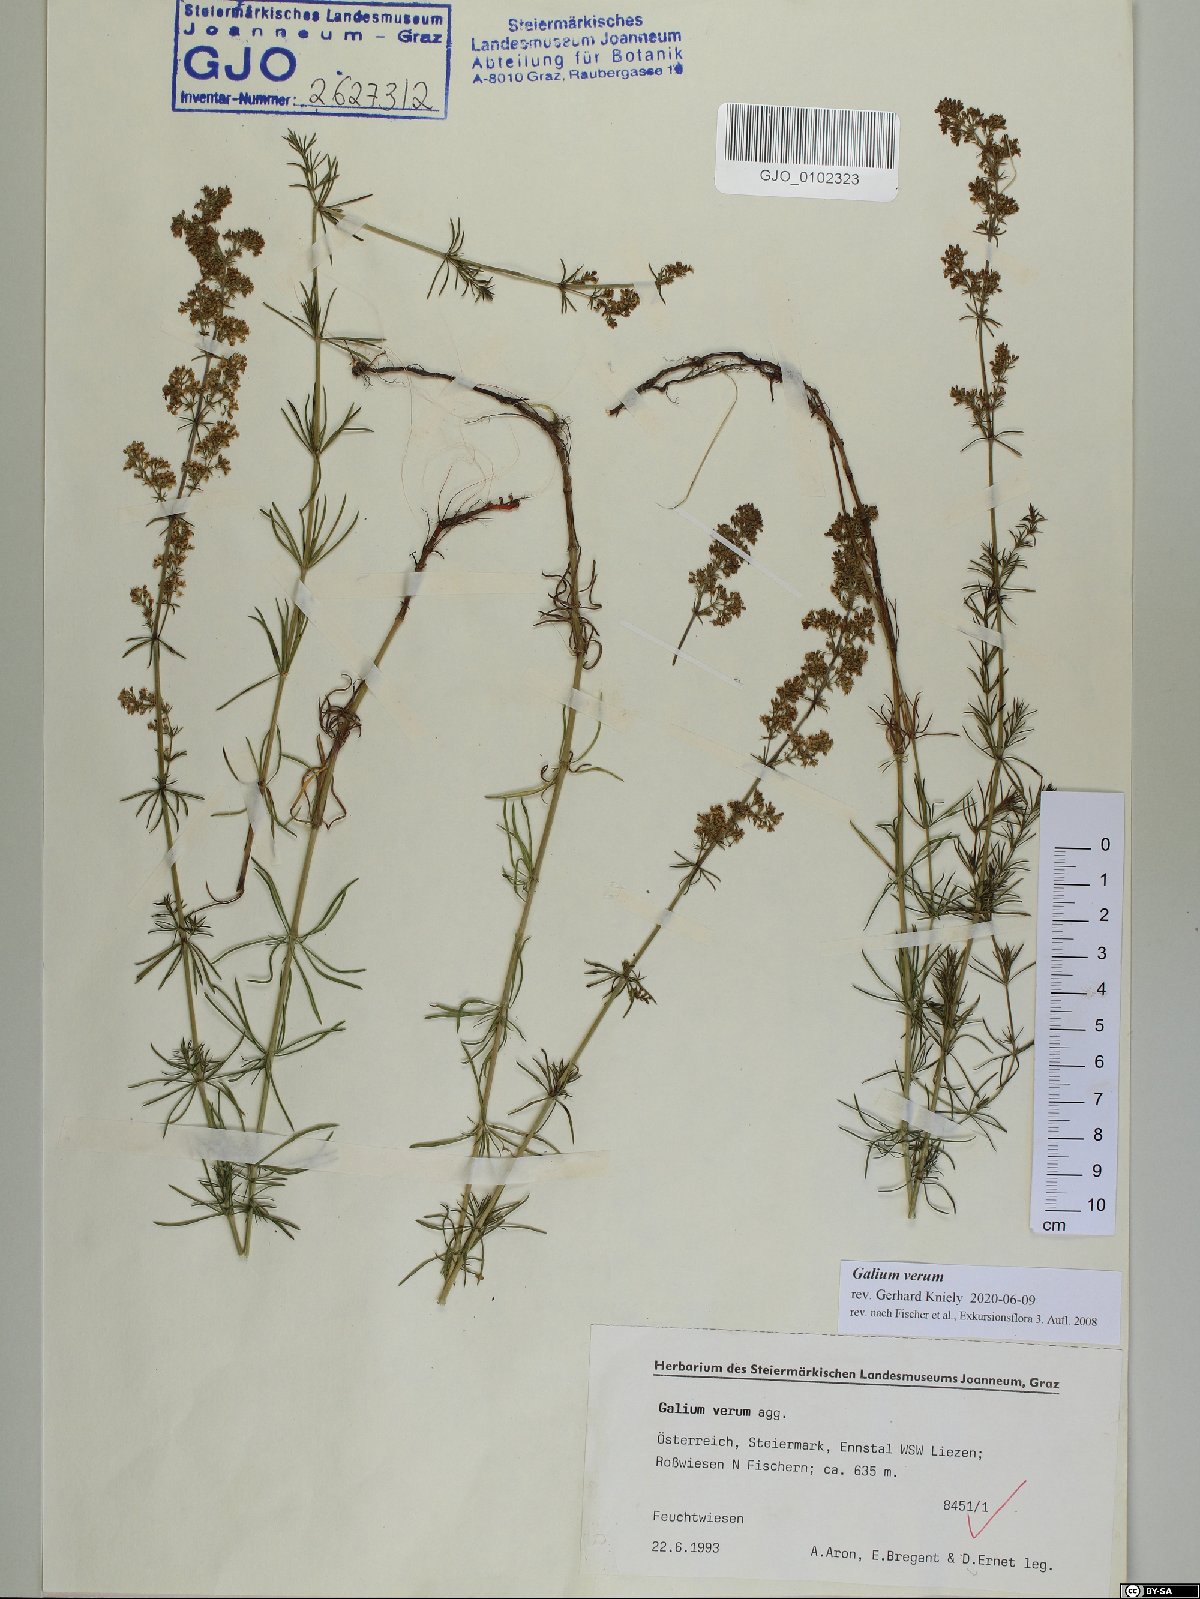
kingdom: Plantae
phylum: Tracheophyta
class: Magnoliopsida
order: Gentianales
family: Rubiaceae
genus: Galium
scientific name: Galium verum
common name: Lady's bedstraw
